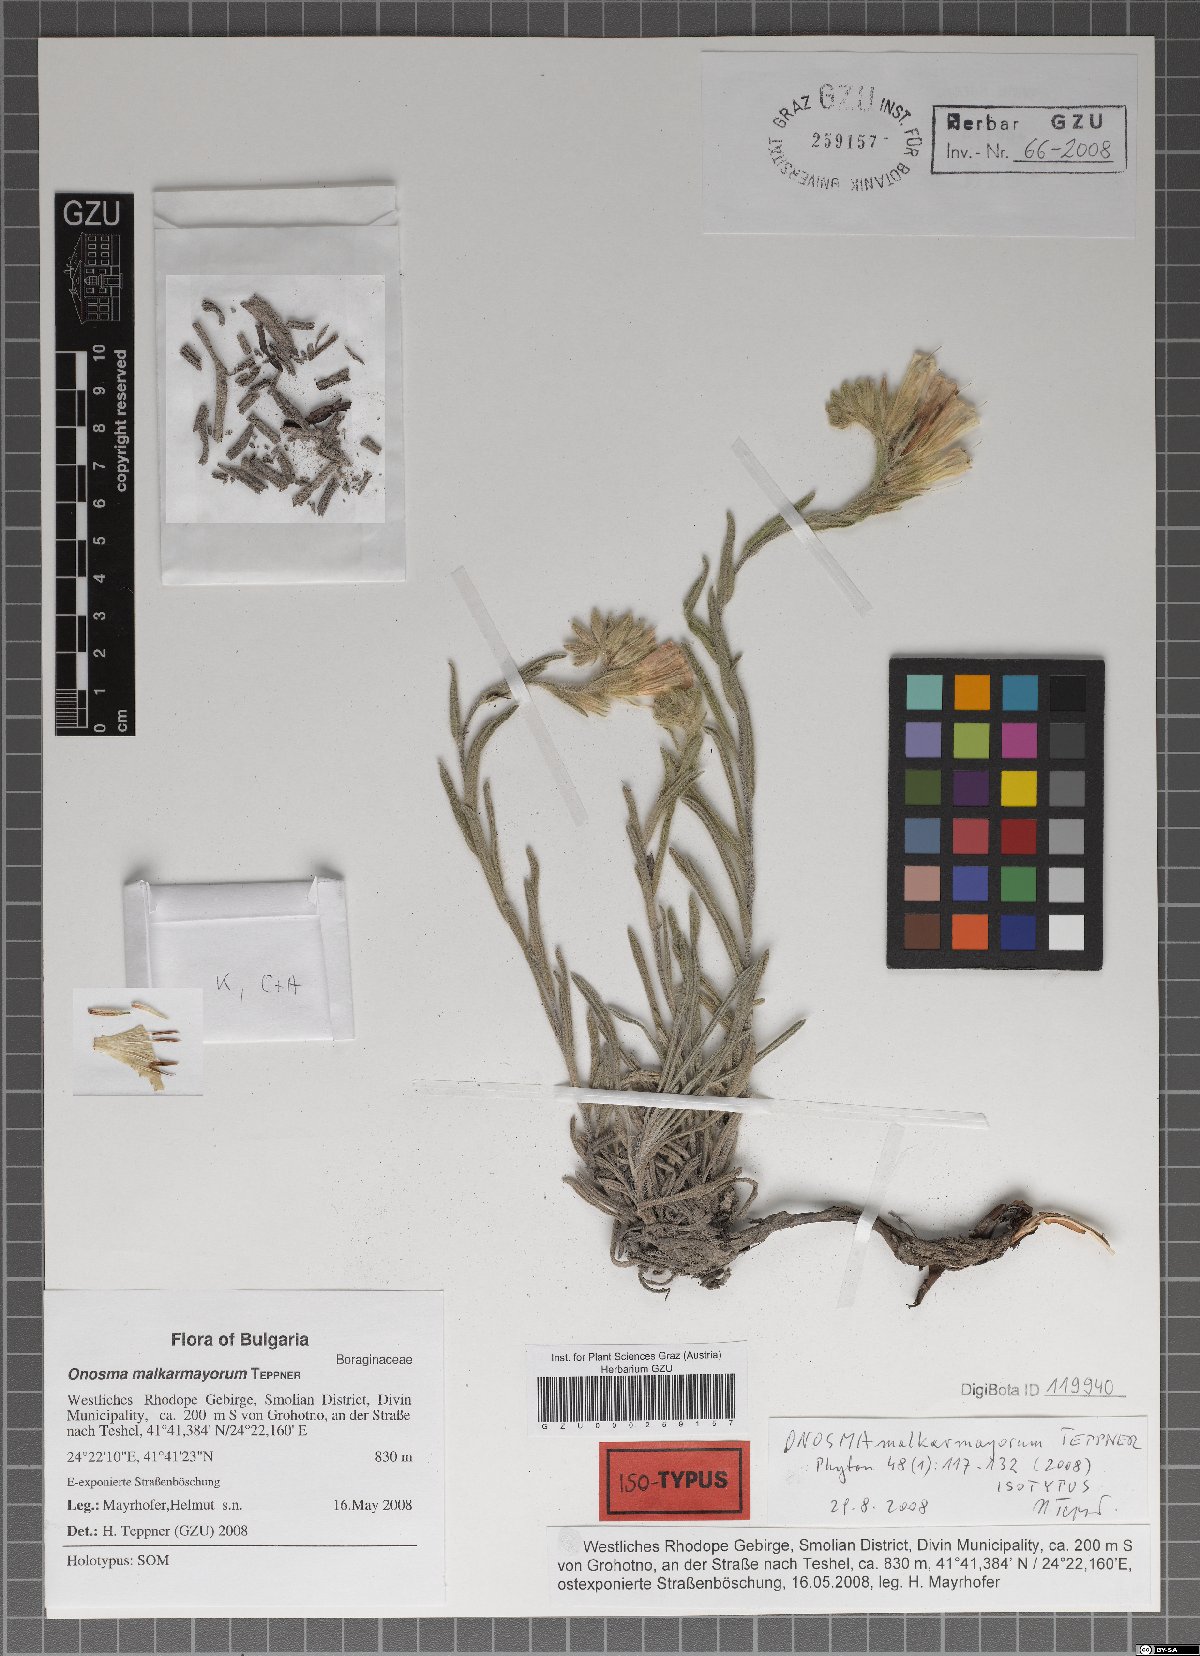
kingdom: Plantae
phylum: Tracheophyta
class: Magnoliopsida
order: Boraginales
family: Boraginaceae
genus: Onosma
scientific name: Onosma malkarmayora
